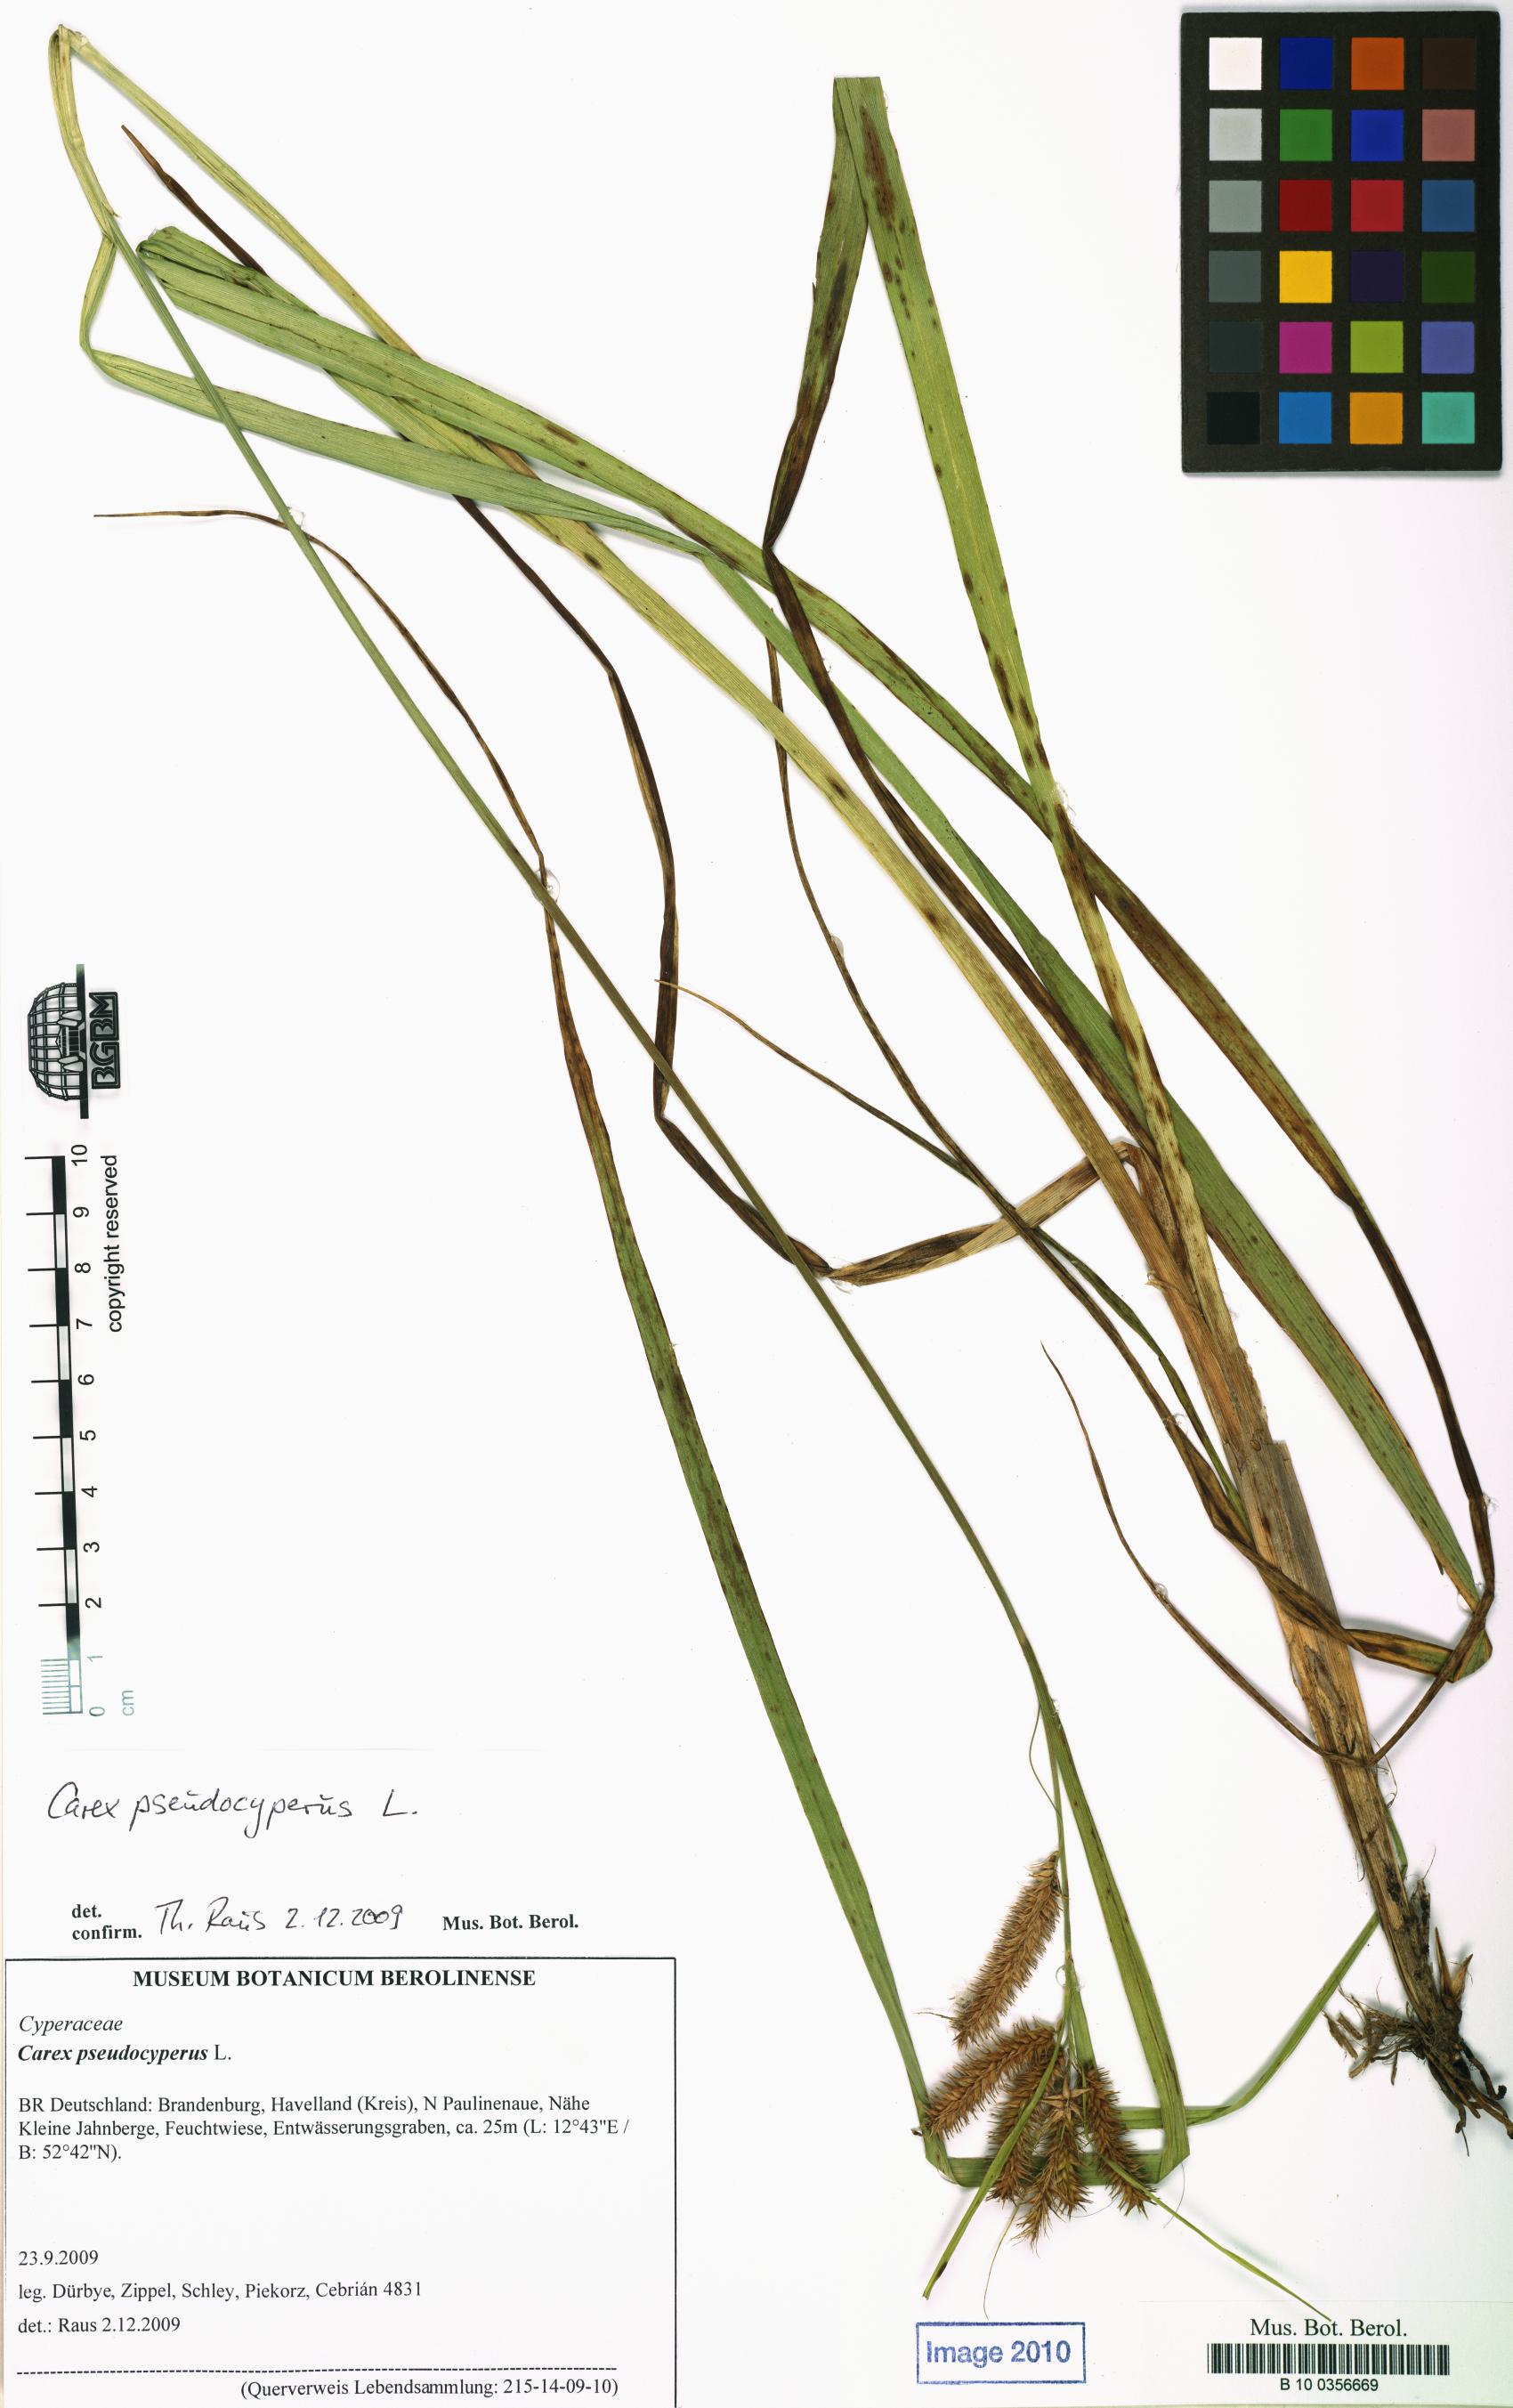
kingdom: Plantae
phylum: Tracheophyta
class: Liliopsida
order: Poales
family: Cyperaceae
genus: Carex
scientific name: Carex pseudocyperus
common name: Cyperus sedge
